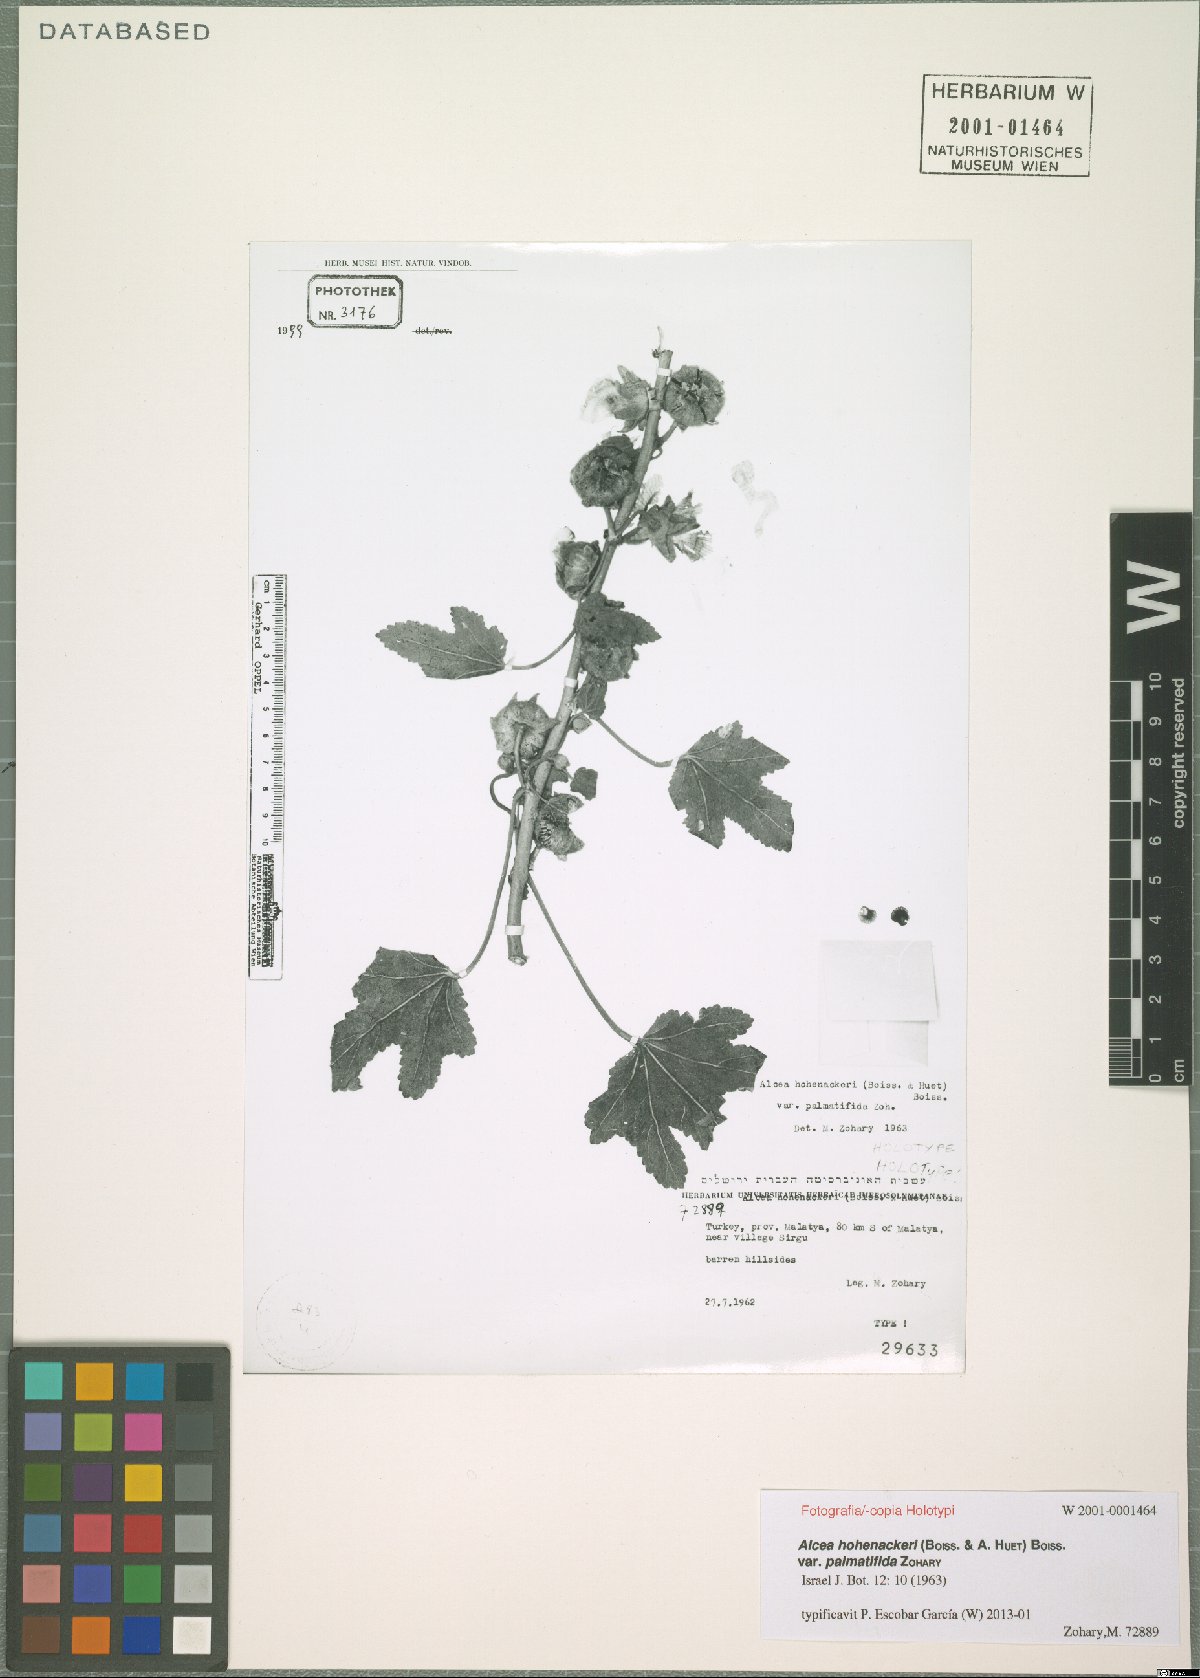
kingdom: Plantae
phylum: Tracheophyta
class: Magnoliopsida
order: Malvales
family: Malvaceae
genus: Alcea
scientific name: Alcea kurdica
